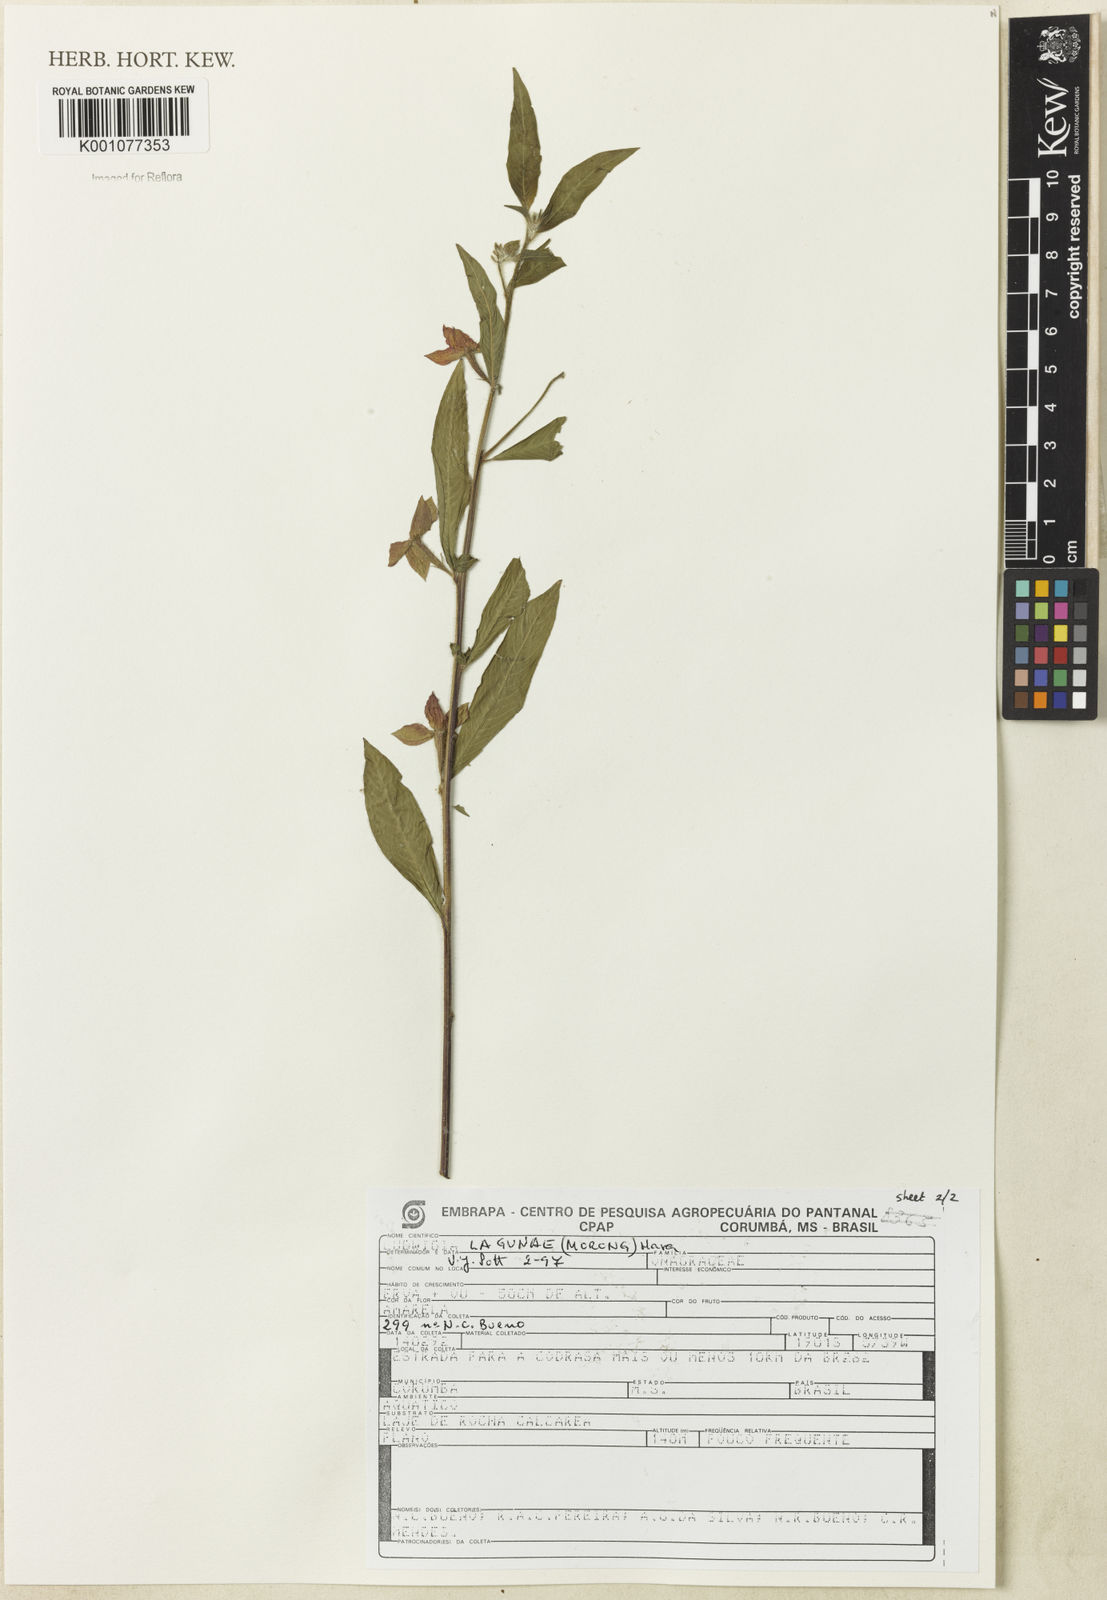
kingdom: Plantae
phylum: Tracheophyta
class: Magnoliopsida
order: Myrtales
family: Onagraceae
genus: Ludwigia
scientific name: Ludwigia lagunae
